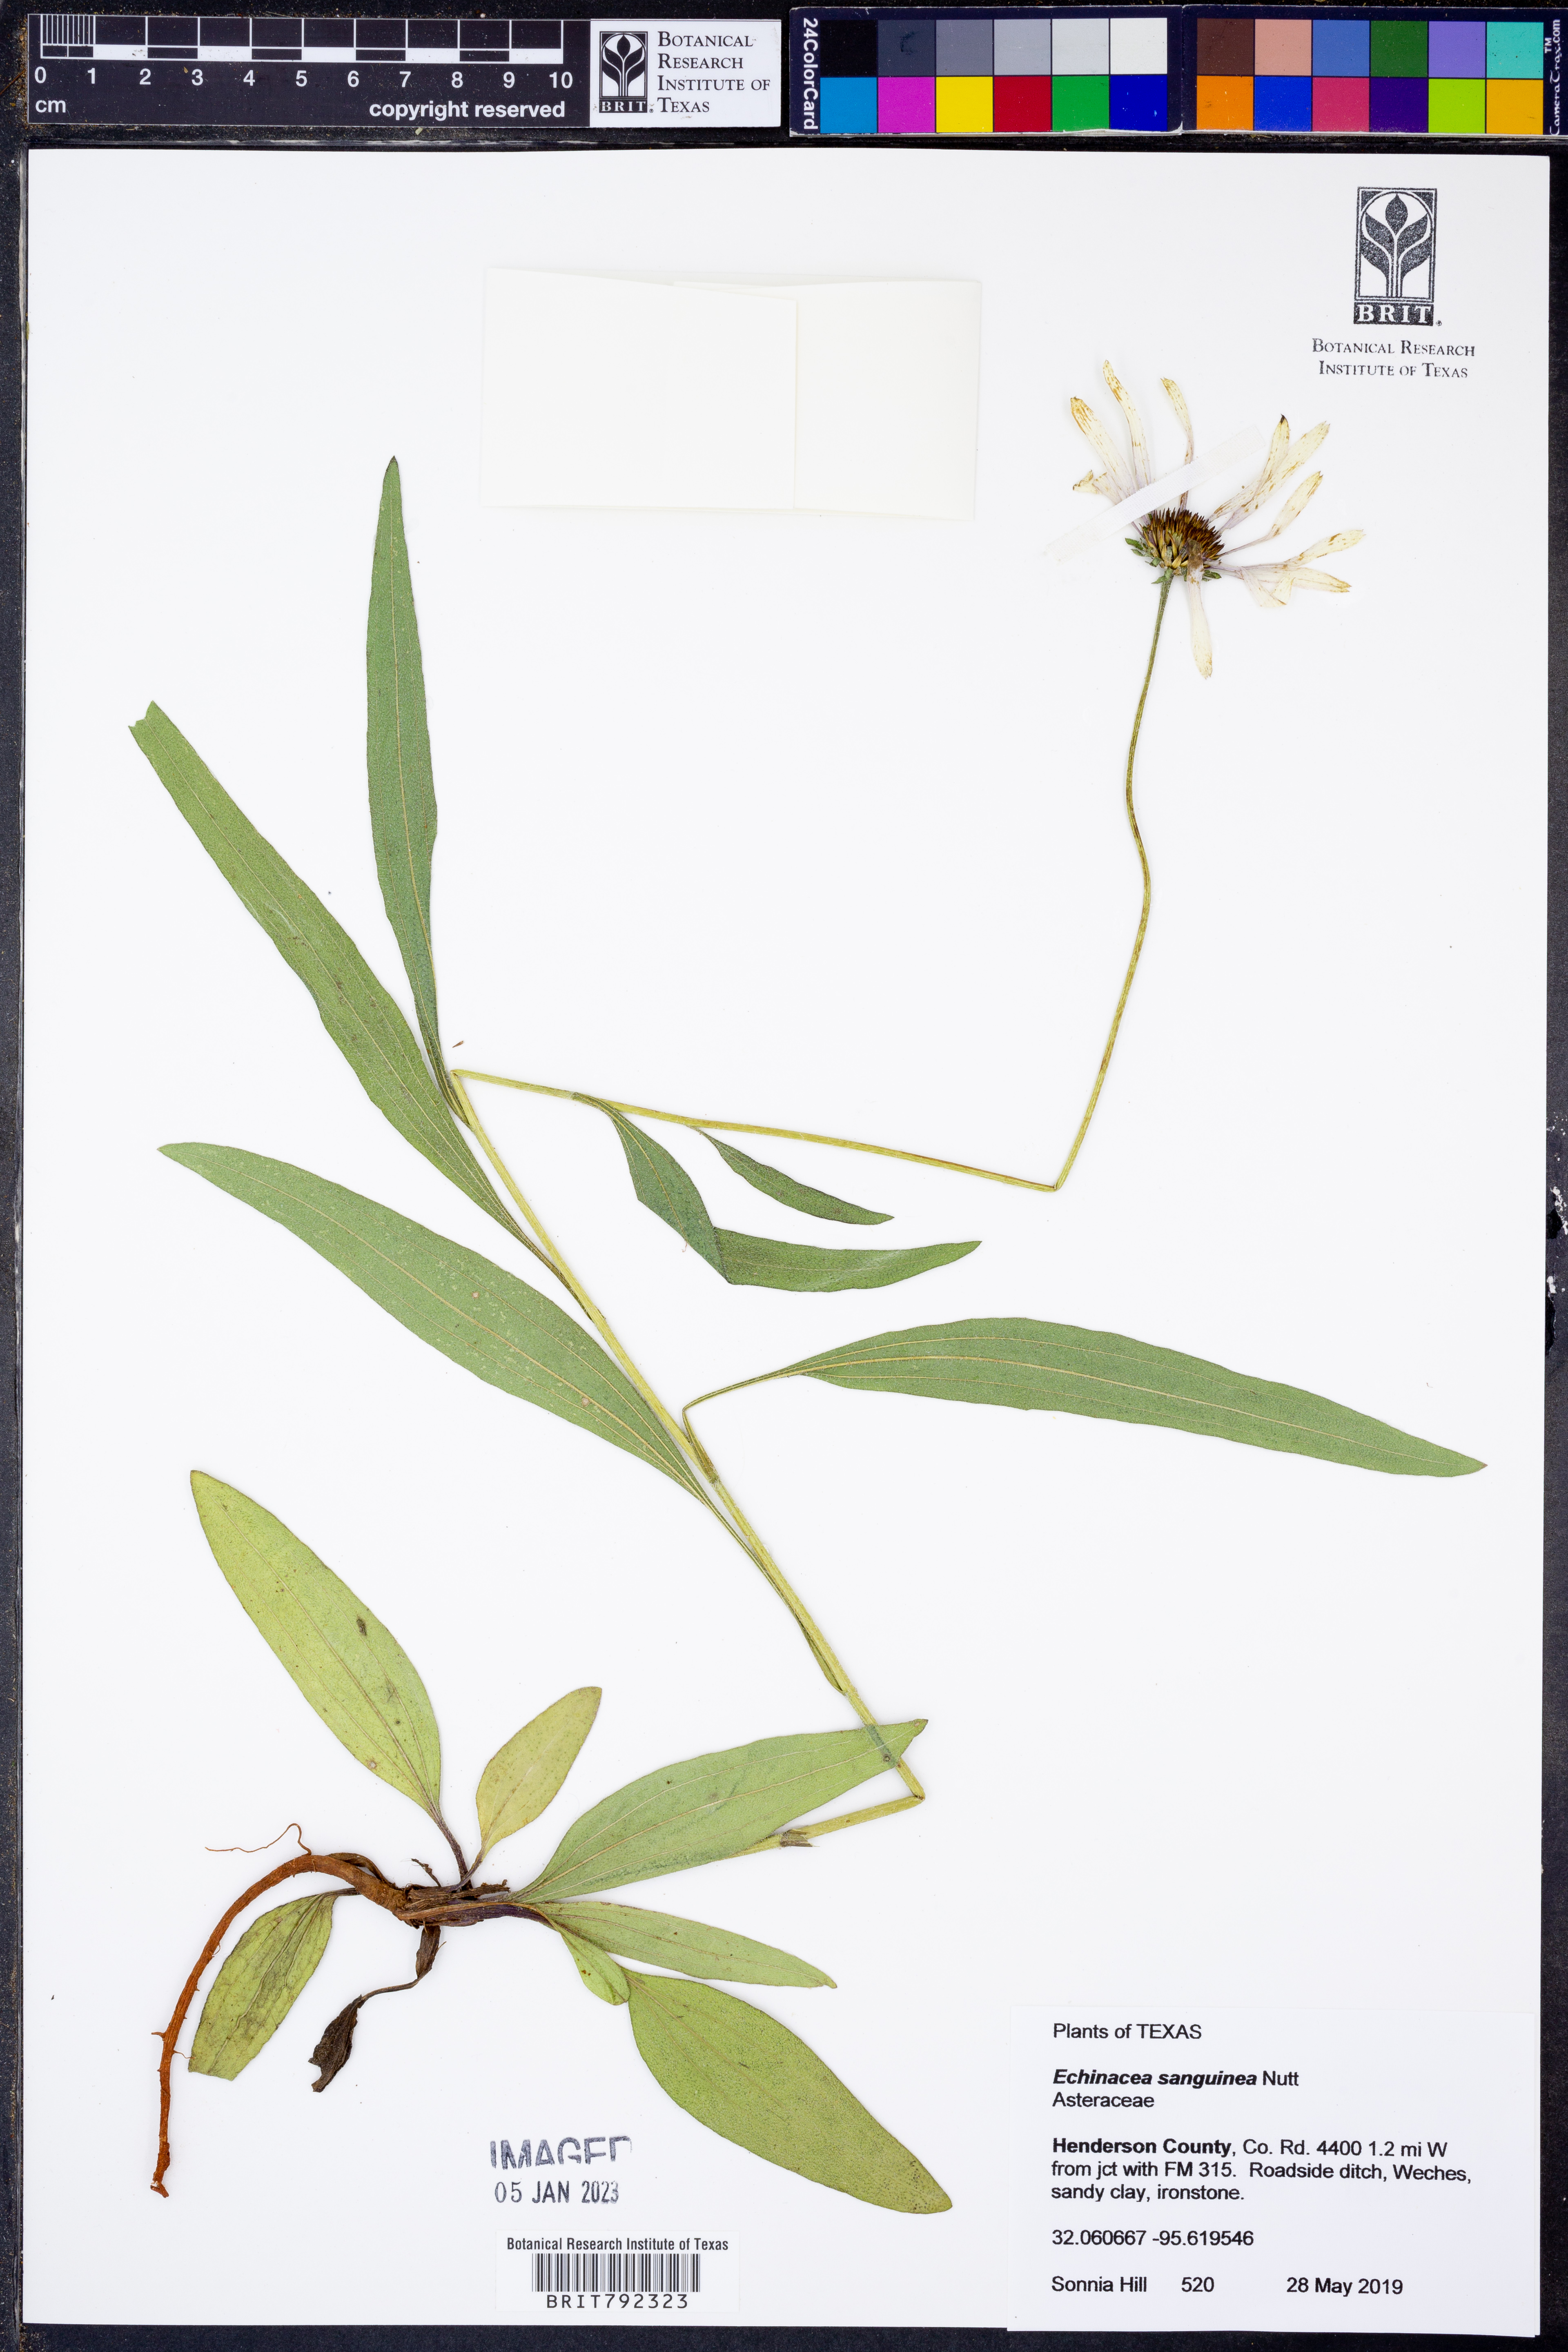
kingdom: Plantae
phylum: Tracheophyta
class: Magnoliopsida
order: Asterales
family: Asteraceae
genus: Echinacea
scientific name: Echinacea sanguinea
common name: Sanguine purple-coneflower
